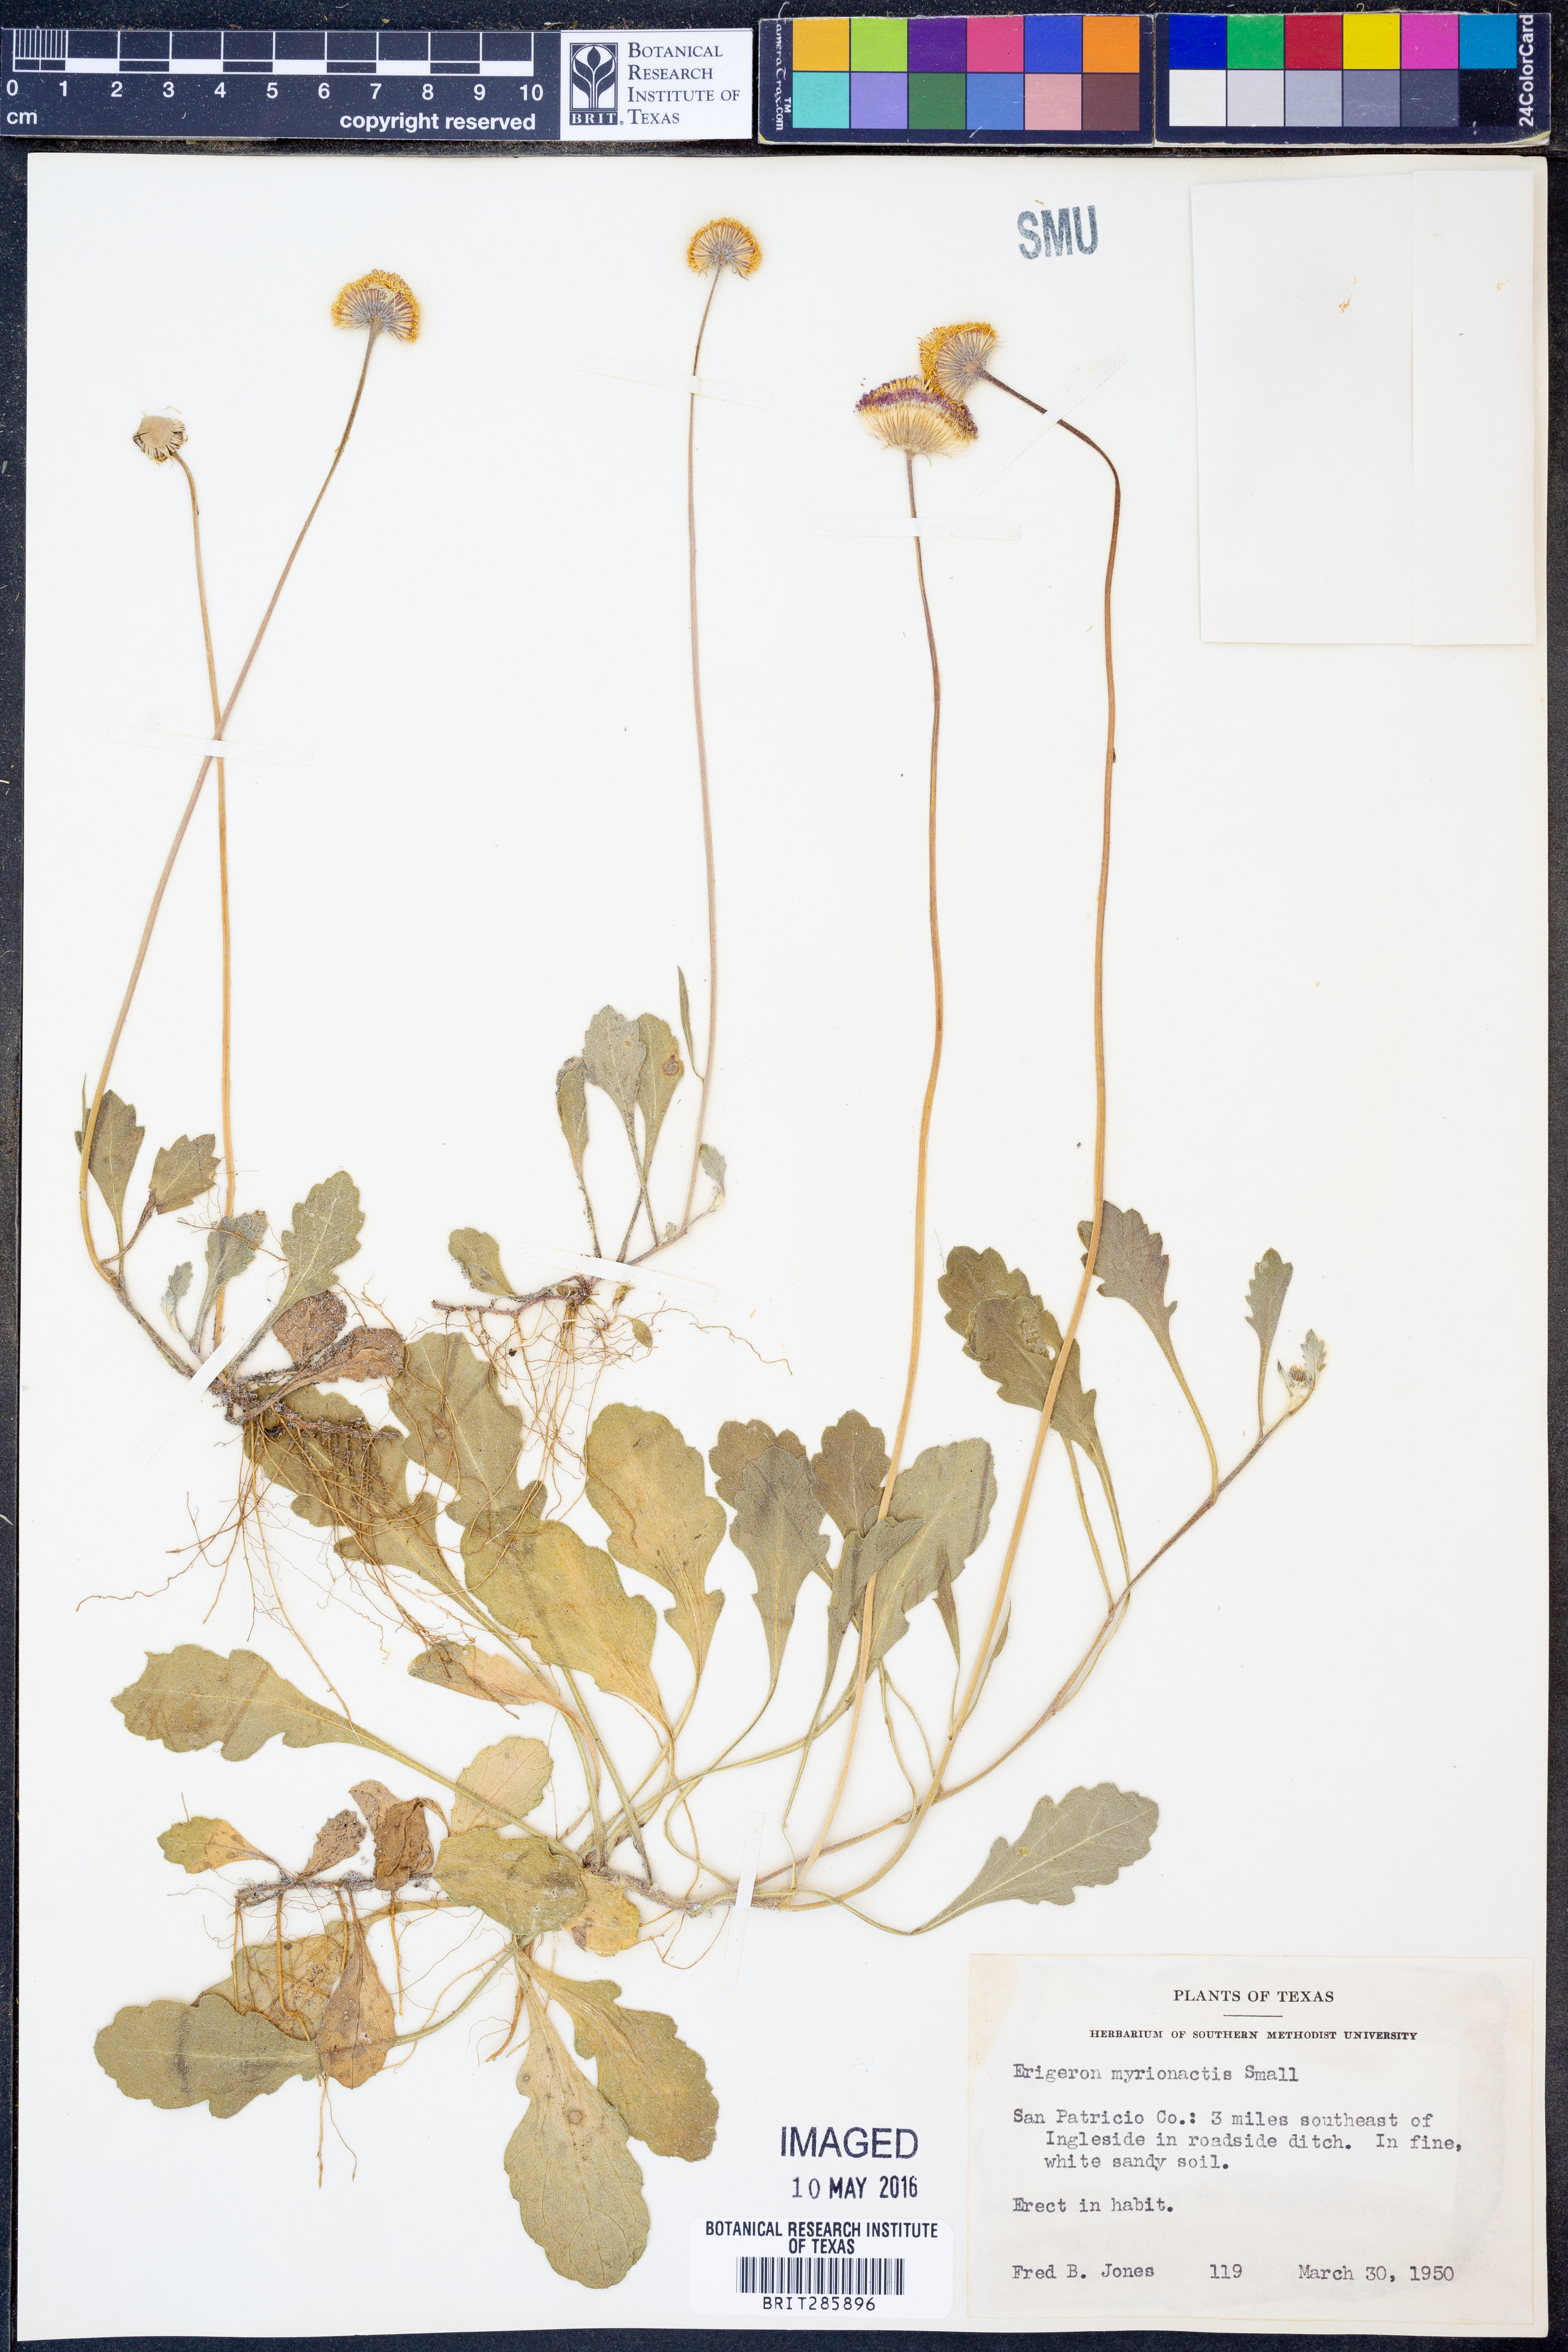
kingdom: Plantae
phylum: Tracheophyta
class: Magnoliopsida
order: Asterales
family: Asteraceae
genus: Erigeron
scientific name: Erigeron procumbens
